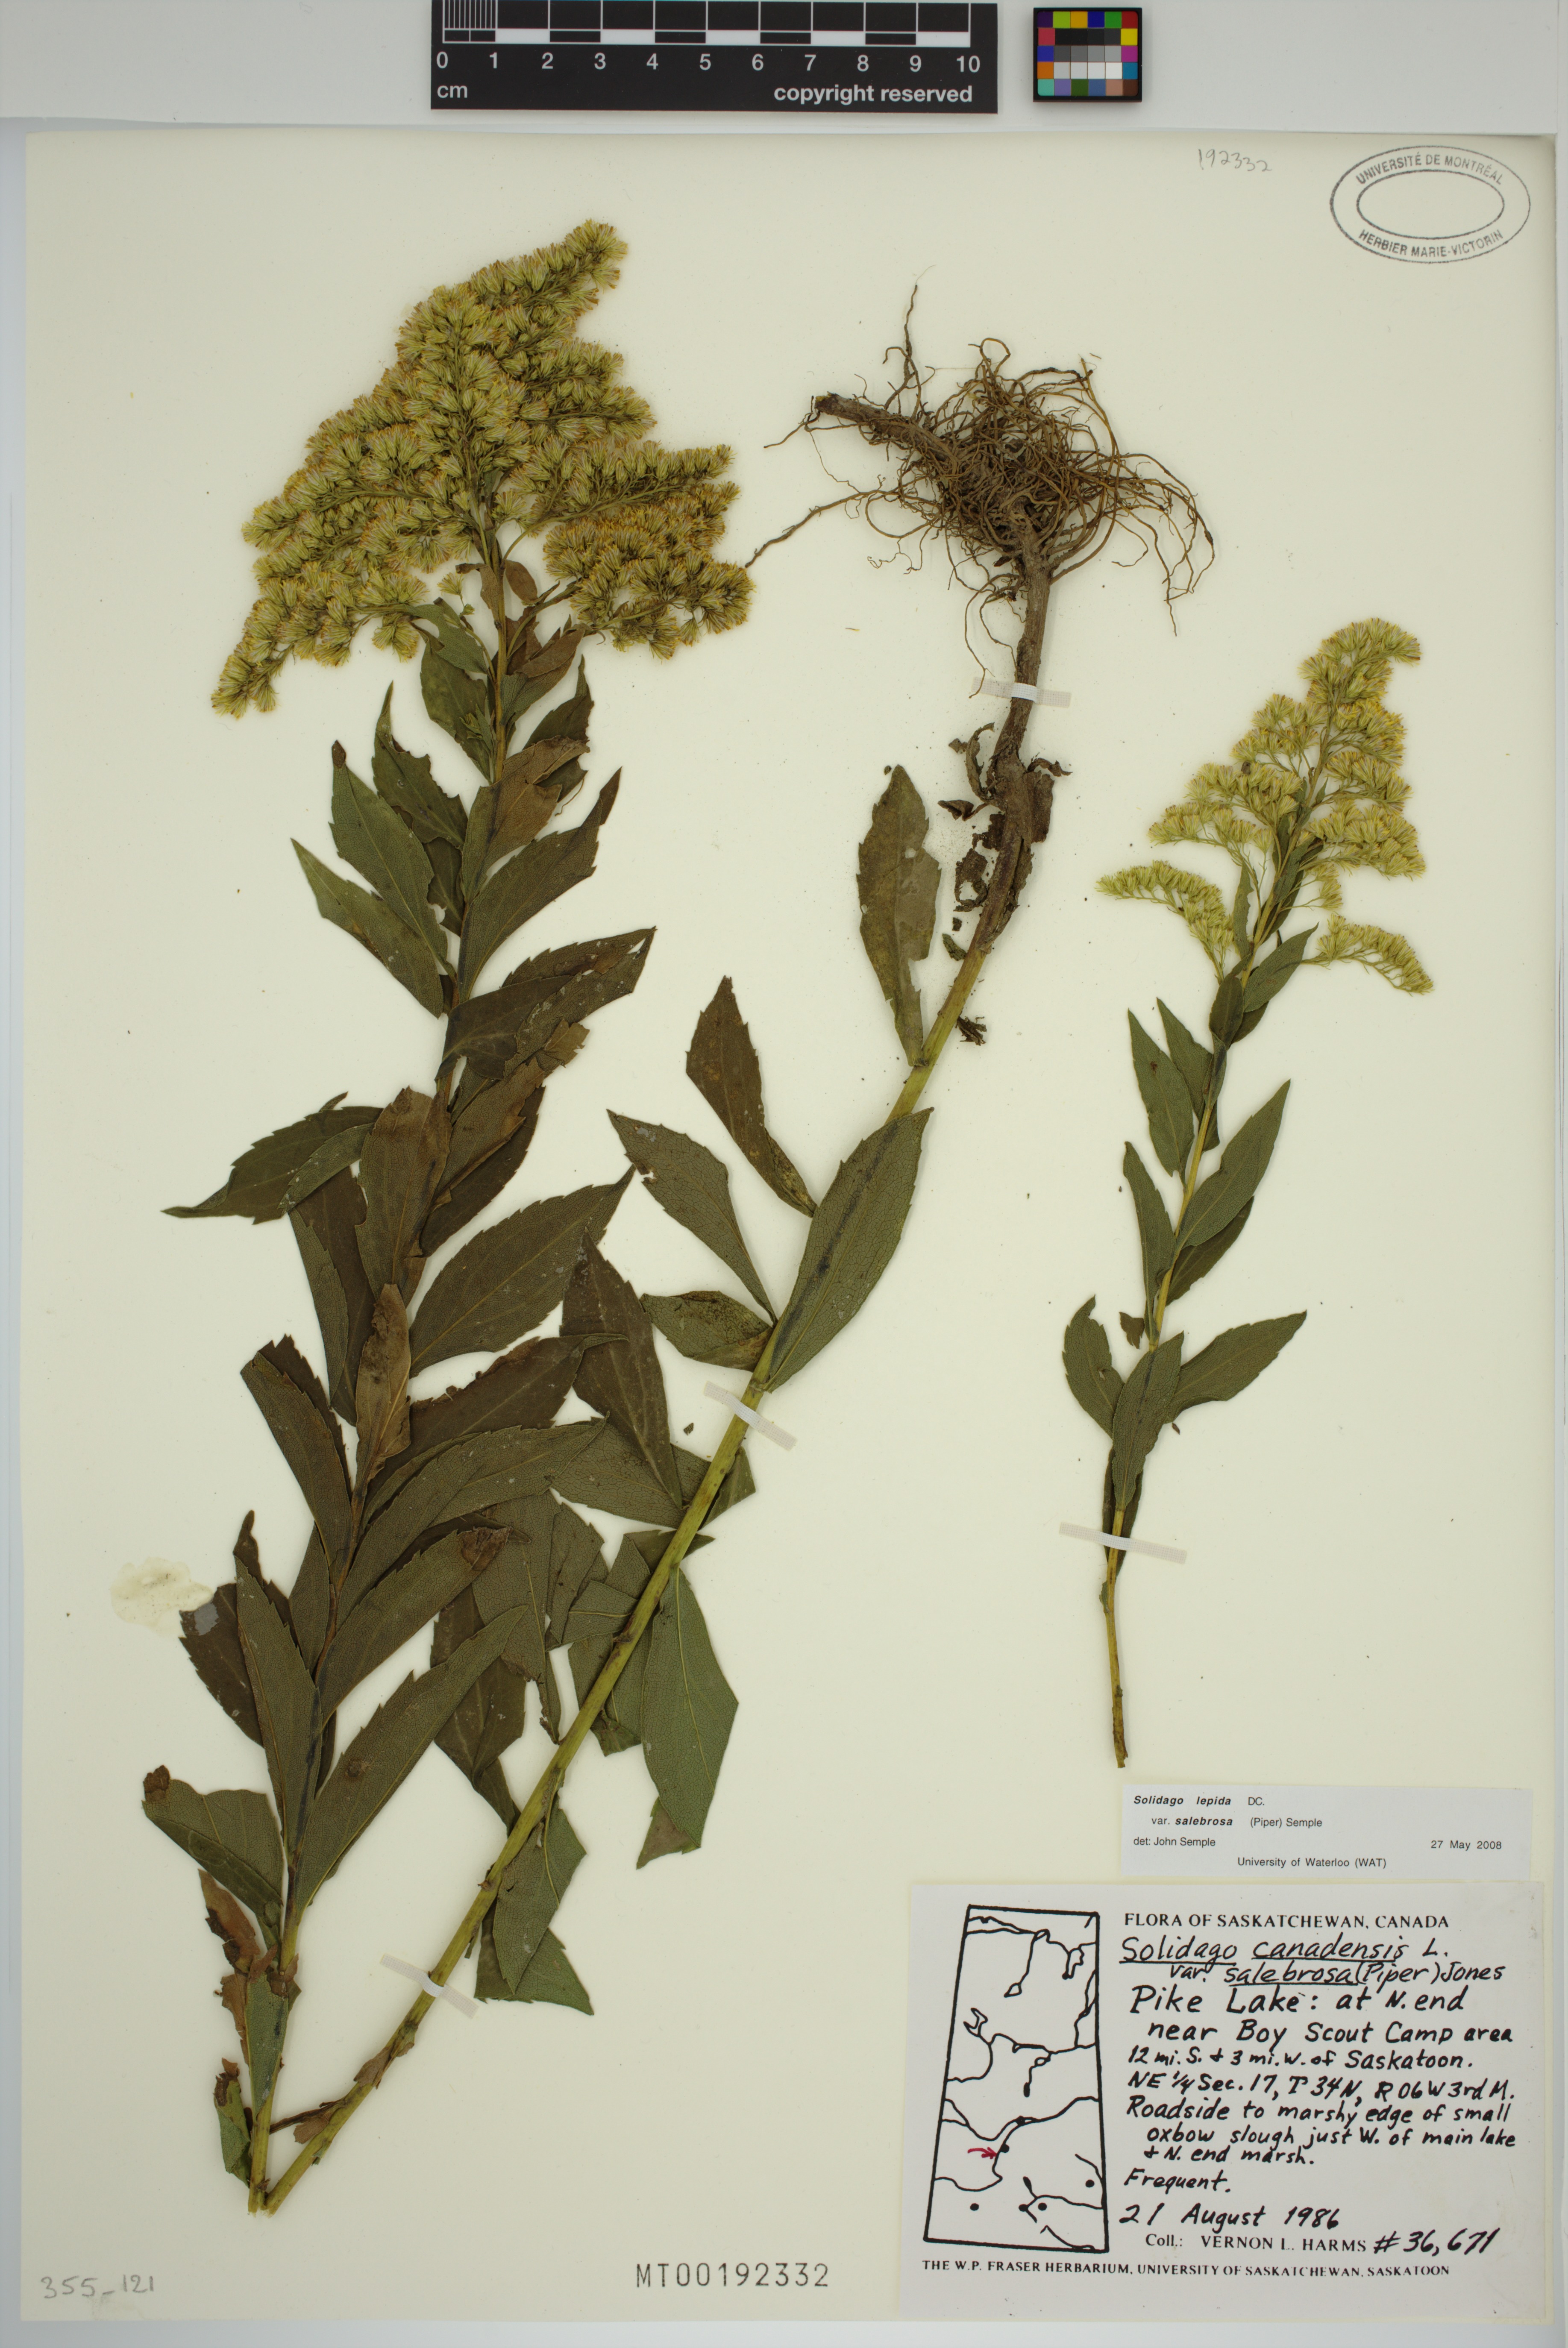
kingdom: Plantae
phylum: Tracheophyta
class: Magnoliopsida
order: Asterales
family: Asteraceae
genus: Solidago
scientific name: Solidago lepida
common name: Western canada goldenrod
